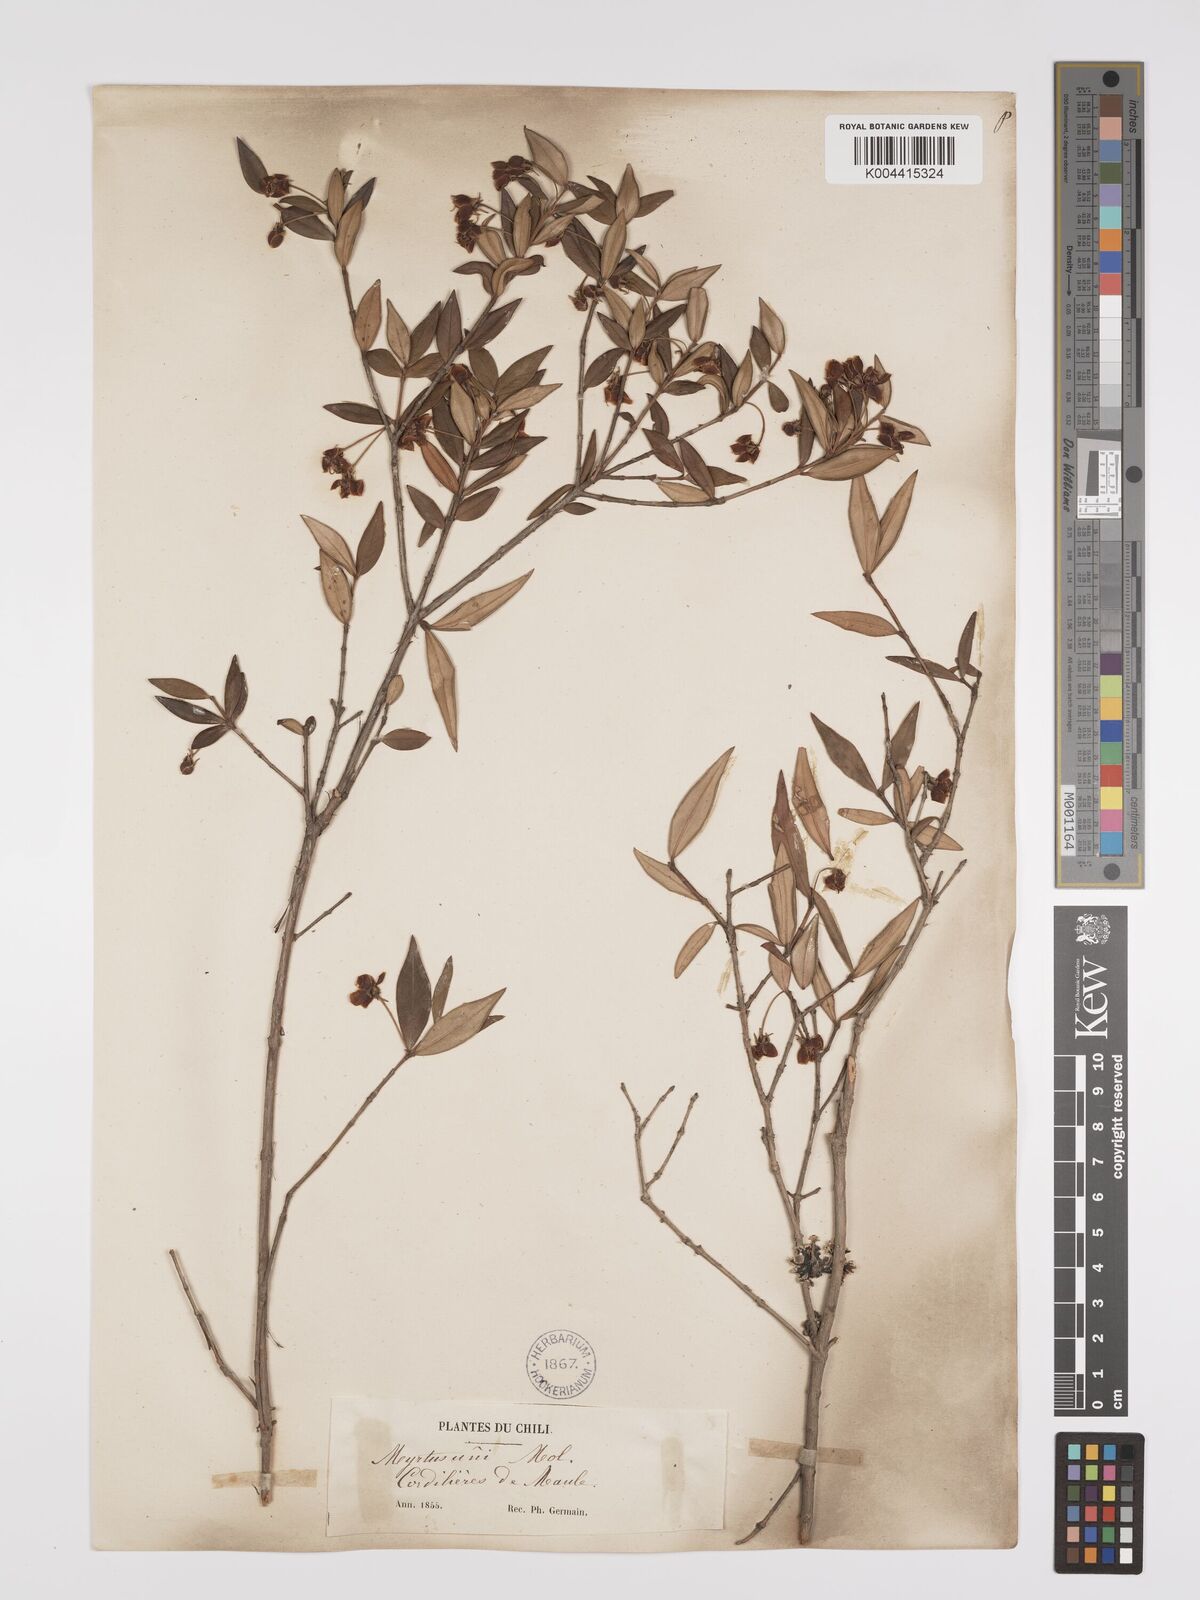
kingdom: Plantae
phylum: Tracheophyta
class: Magnoliopsida
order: Myrtales
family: Myrtaceae
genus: Ugni
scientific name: Ugni molinae
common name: Chilean-guava
